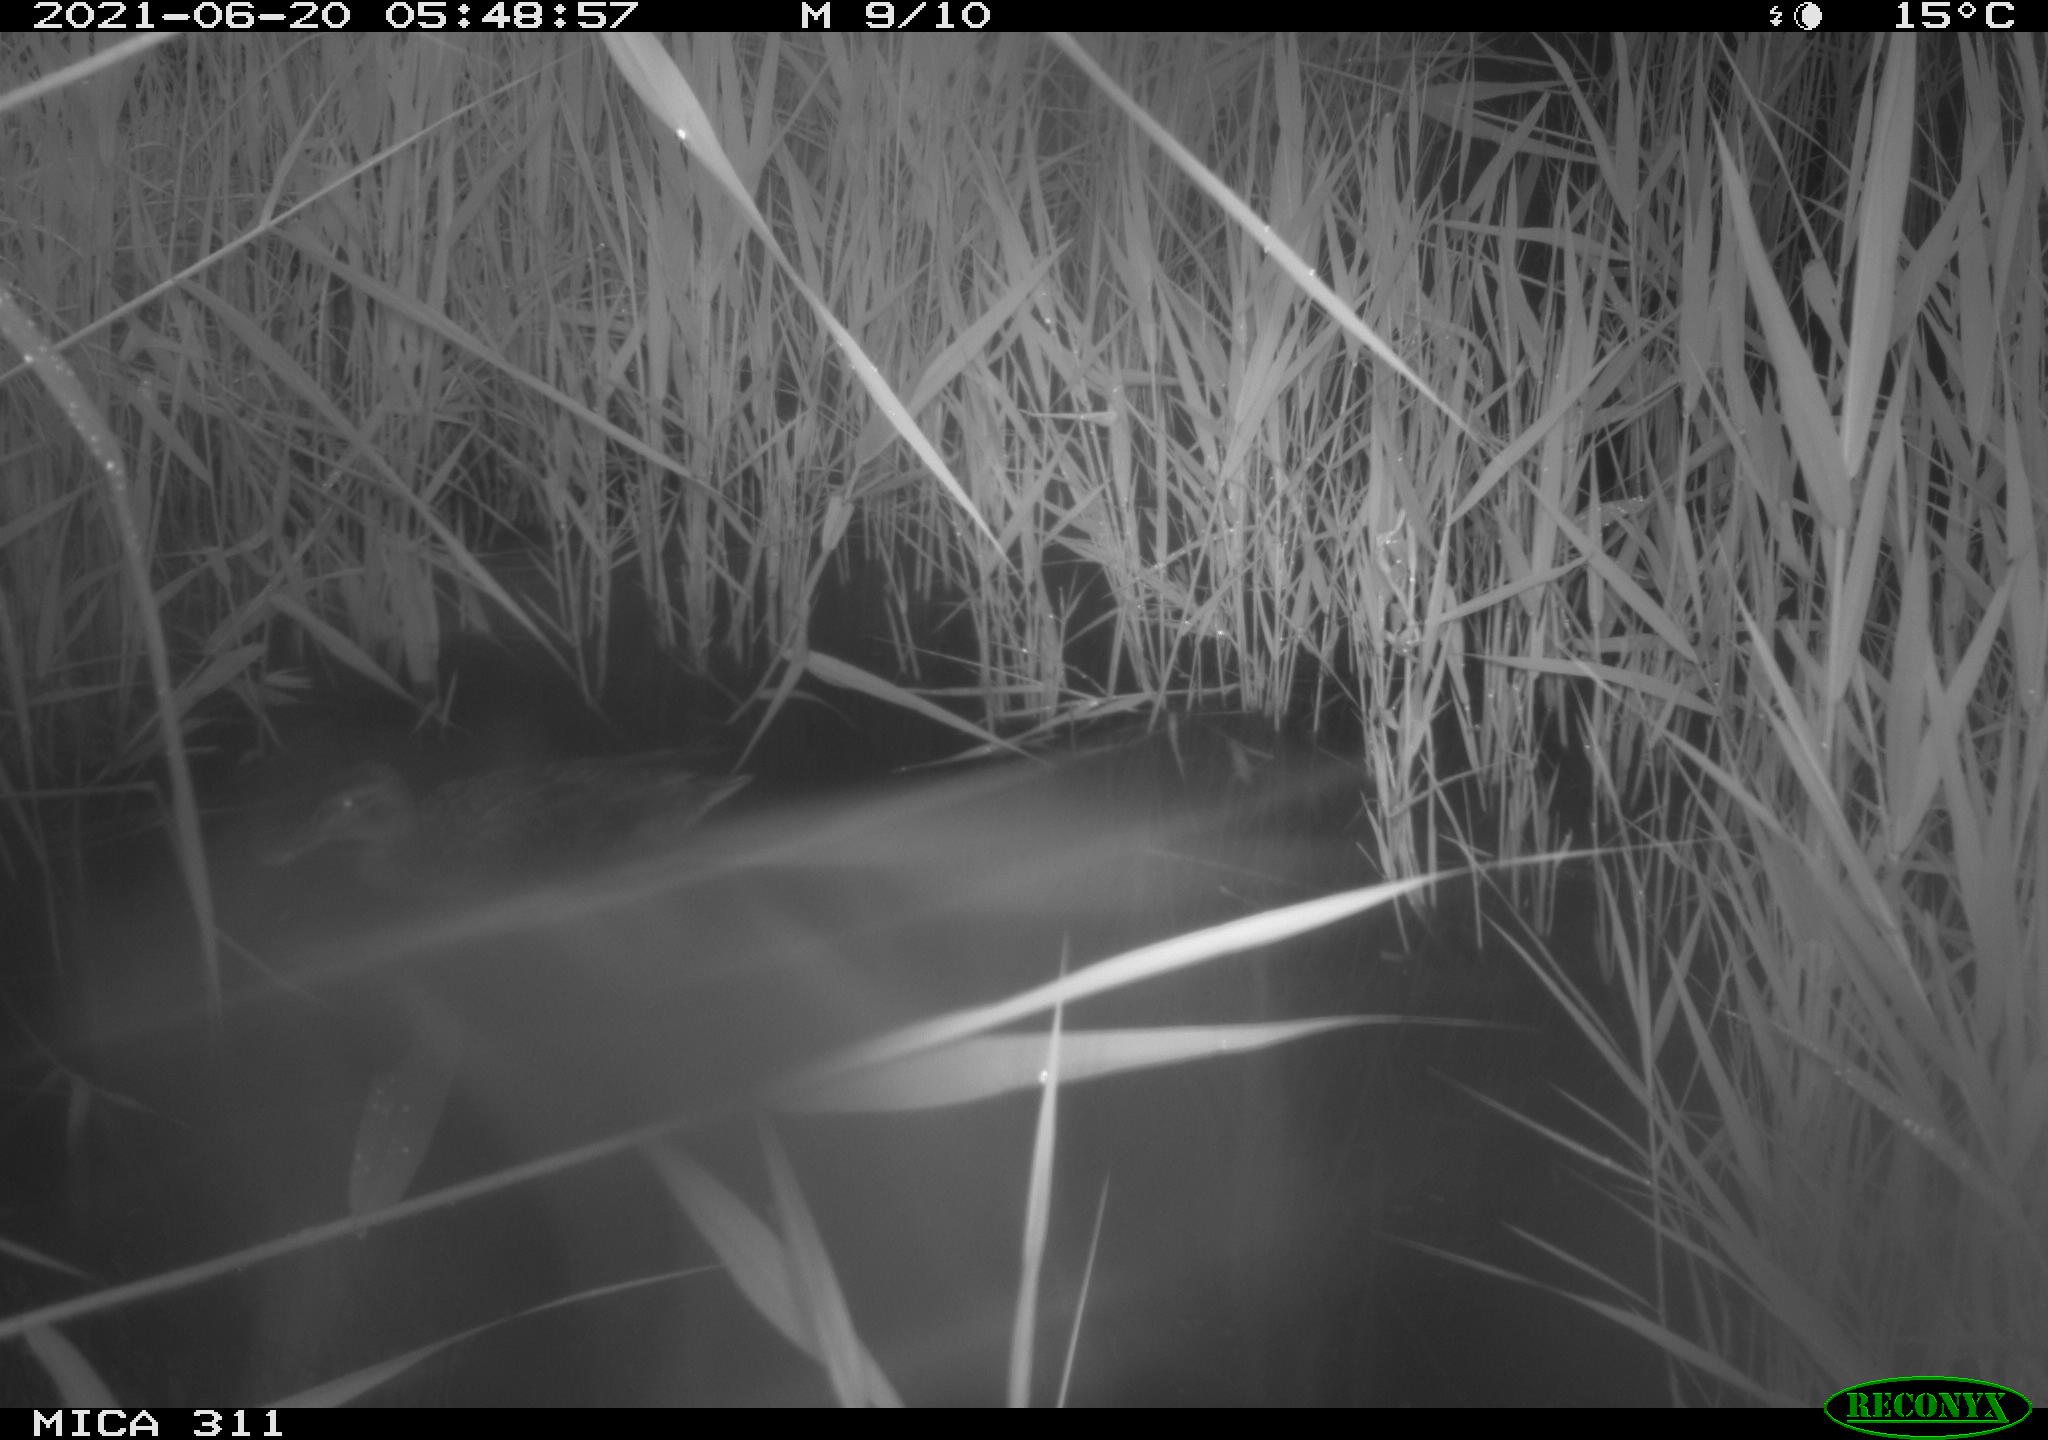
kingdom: Animalia
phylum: Chordata
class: Aves
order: Anseriformes
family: Anatidae
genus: Anas
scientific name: Anas
